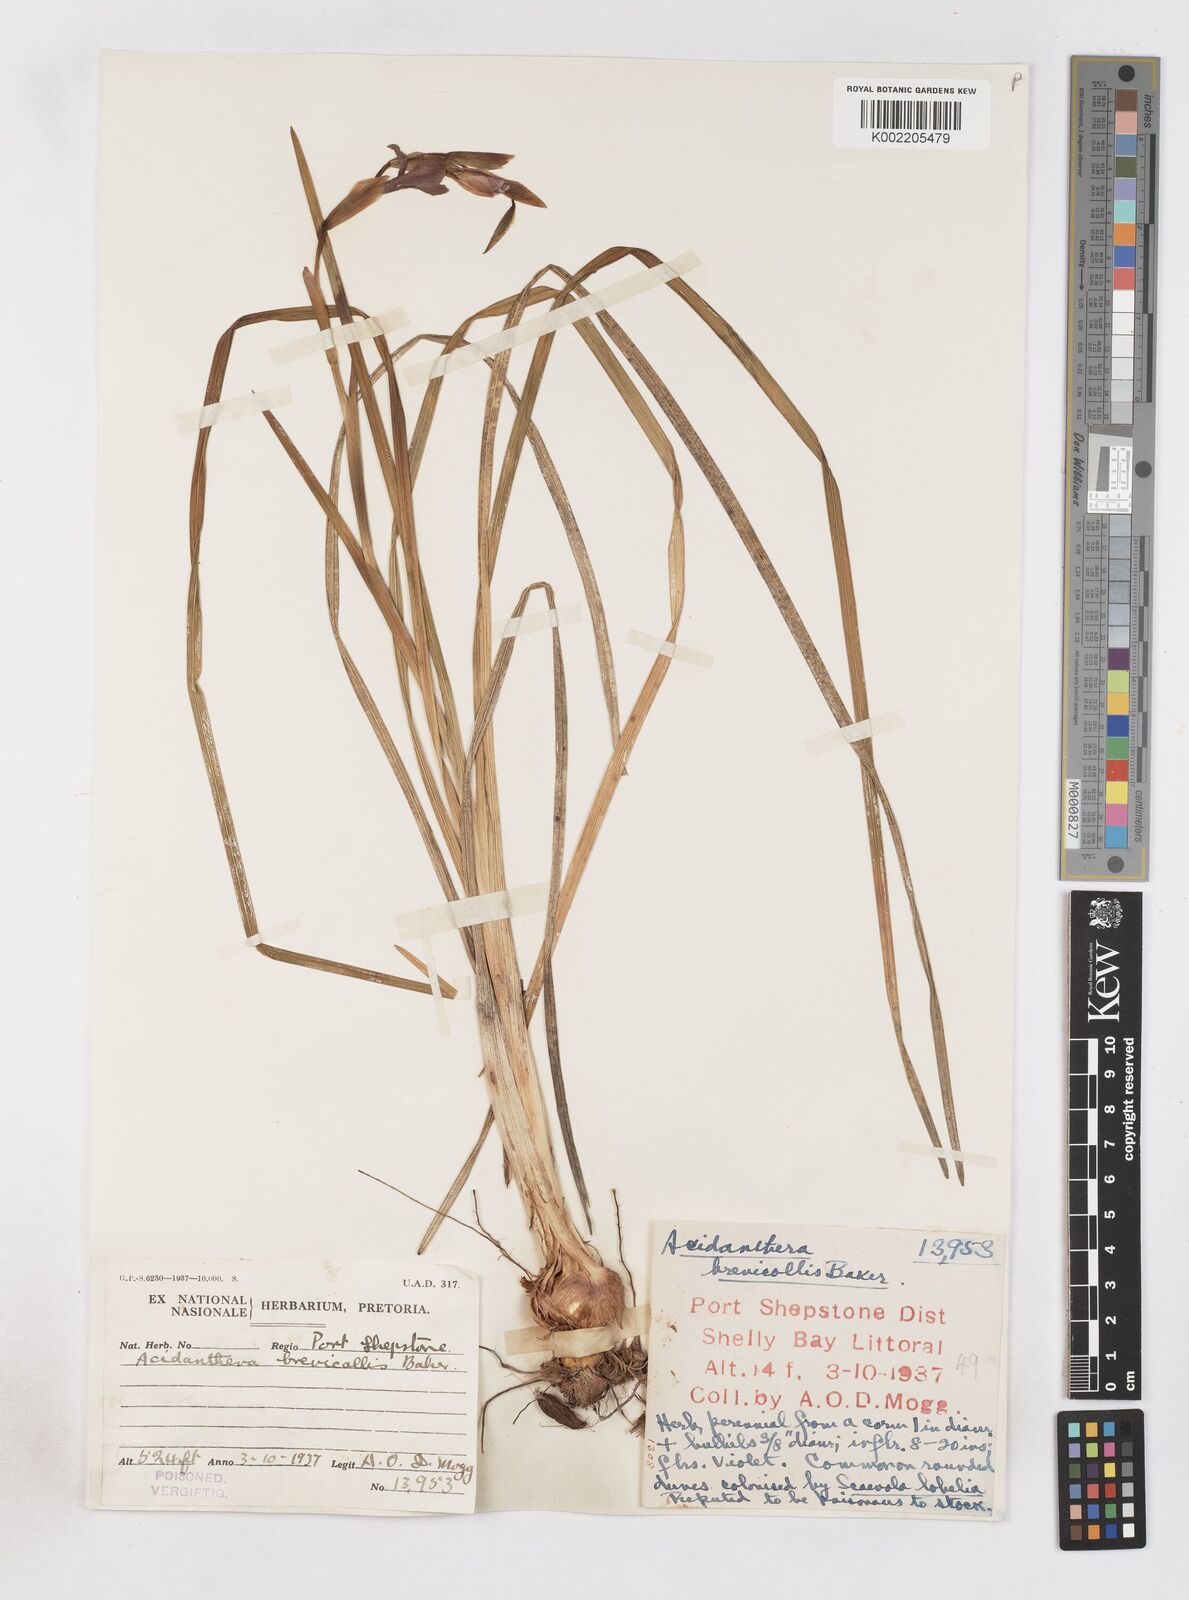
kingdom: Plantae
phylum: Tracheophyta
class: Liliopsida
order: Asparagales
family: Iridaceae
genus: Gladiolus
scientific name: Gladiolus gueinzii
